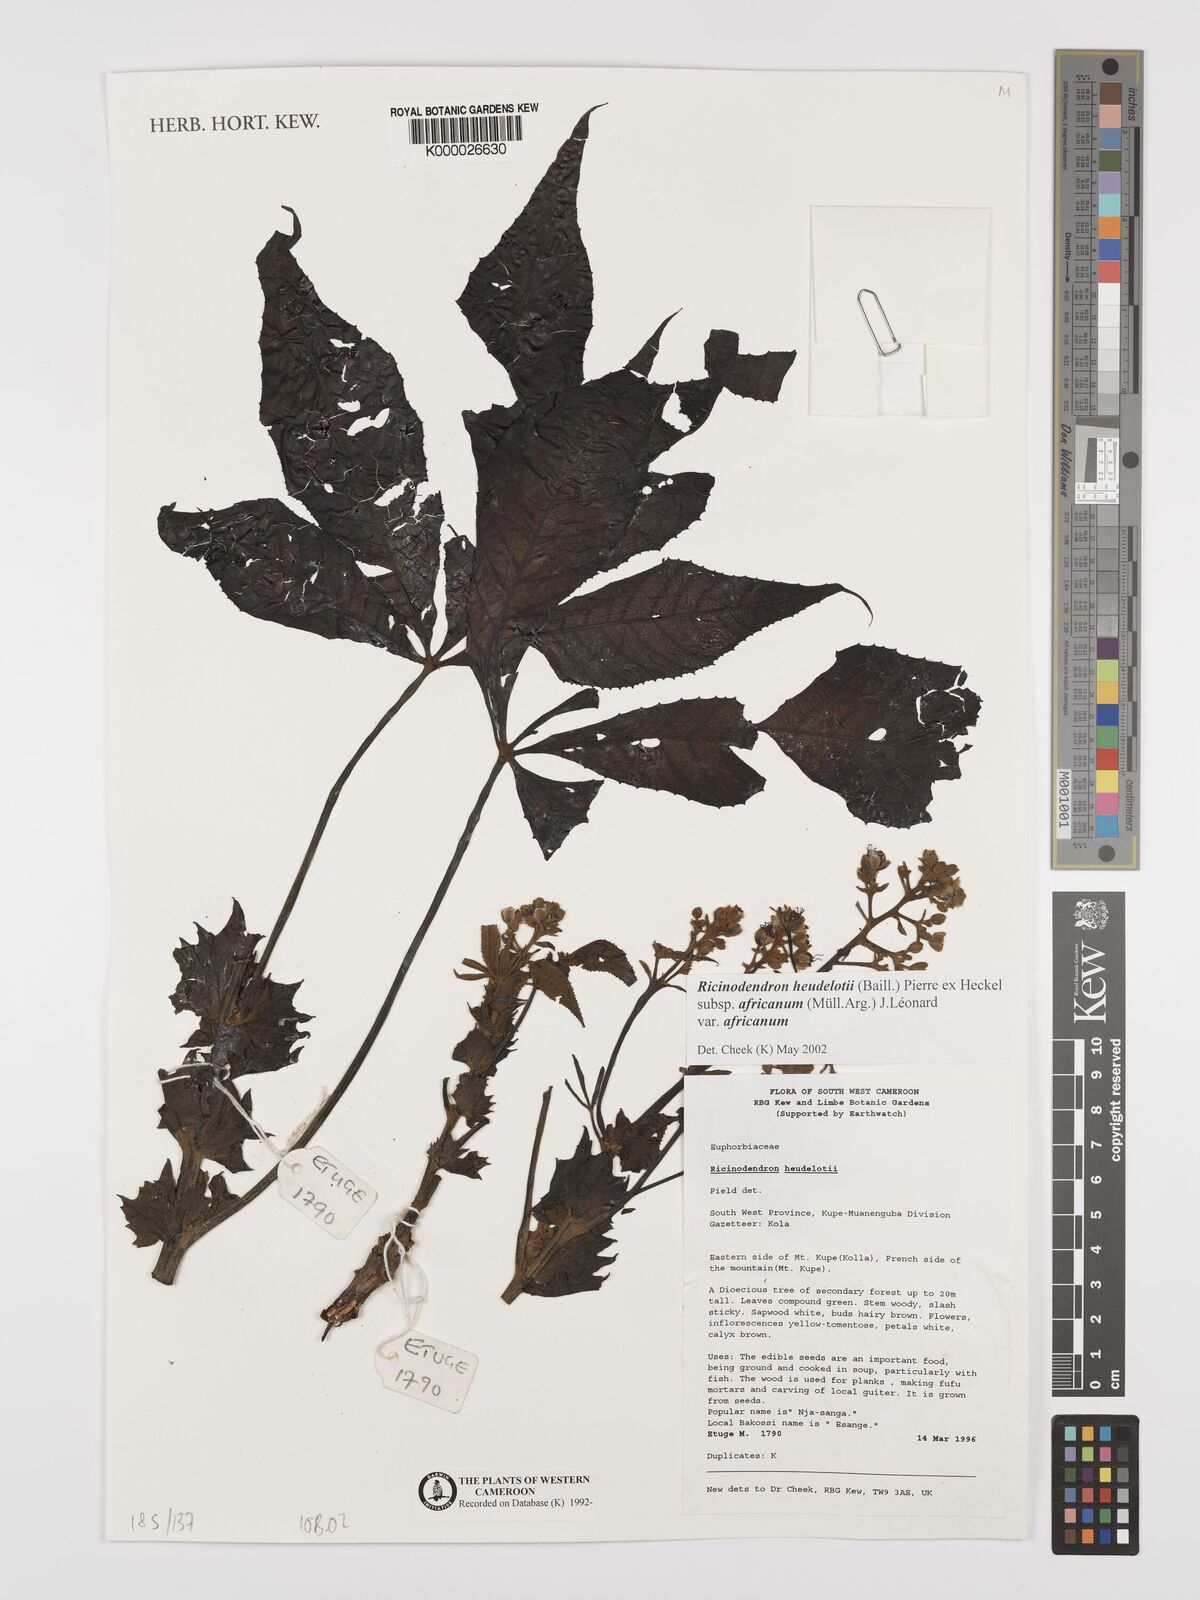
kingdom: Plantae
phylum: Tracheophyta
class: Magnoliopsida
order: Malpighiales
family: Euphorbiaceae
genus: Ricinodendron
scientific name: Ricinodendron heudelotii
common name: African nut-tree
